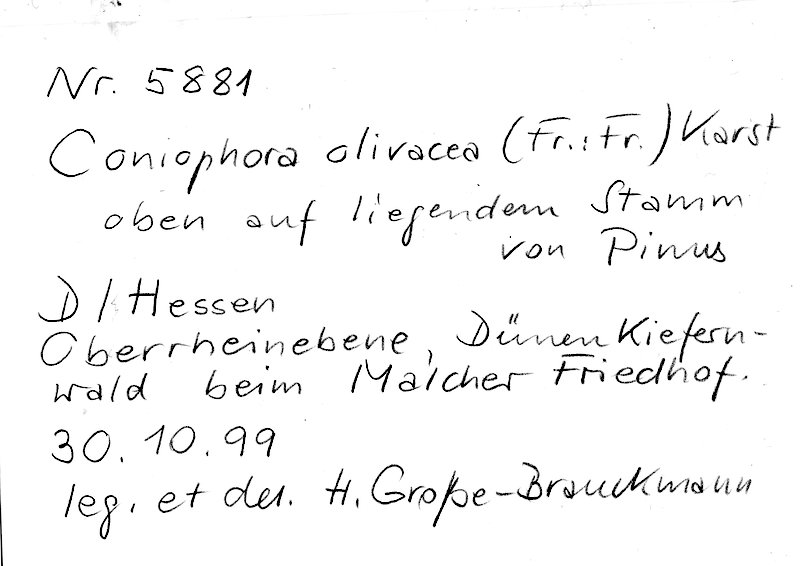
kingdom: Plantae
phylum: Tracheophyta
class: Pinopsida
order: Pinales
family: Pinaceae
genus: Pinus
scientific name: Pinus
